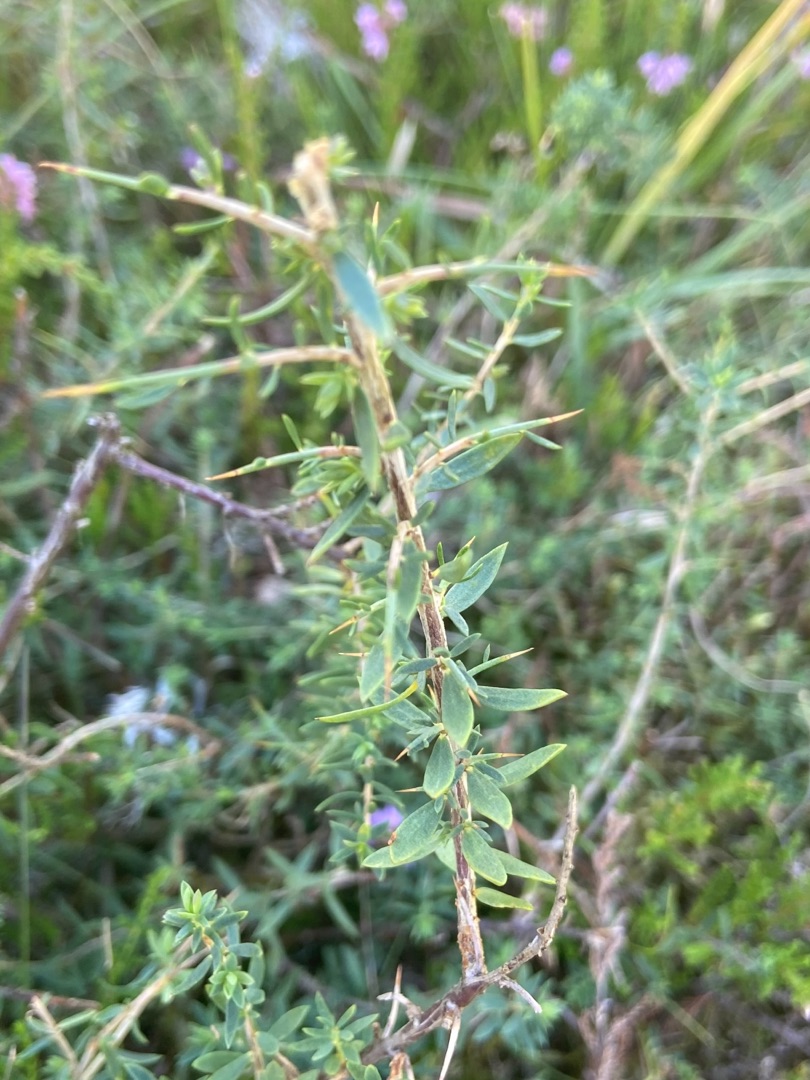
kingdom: Plantae
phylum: Tracheophyta
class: Magnoliopsida
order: Fabales
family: Fabaceae
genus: Genista
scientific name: Genista anglica
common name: Engelsk visse
